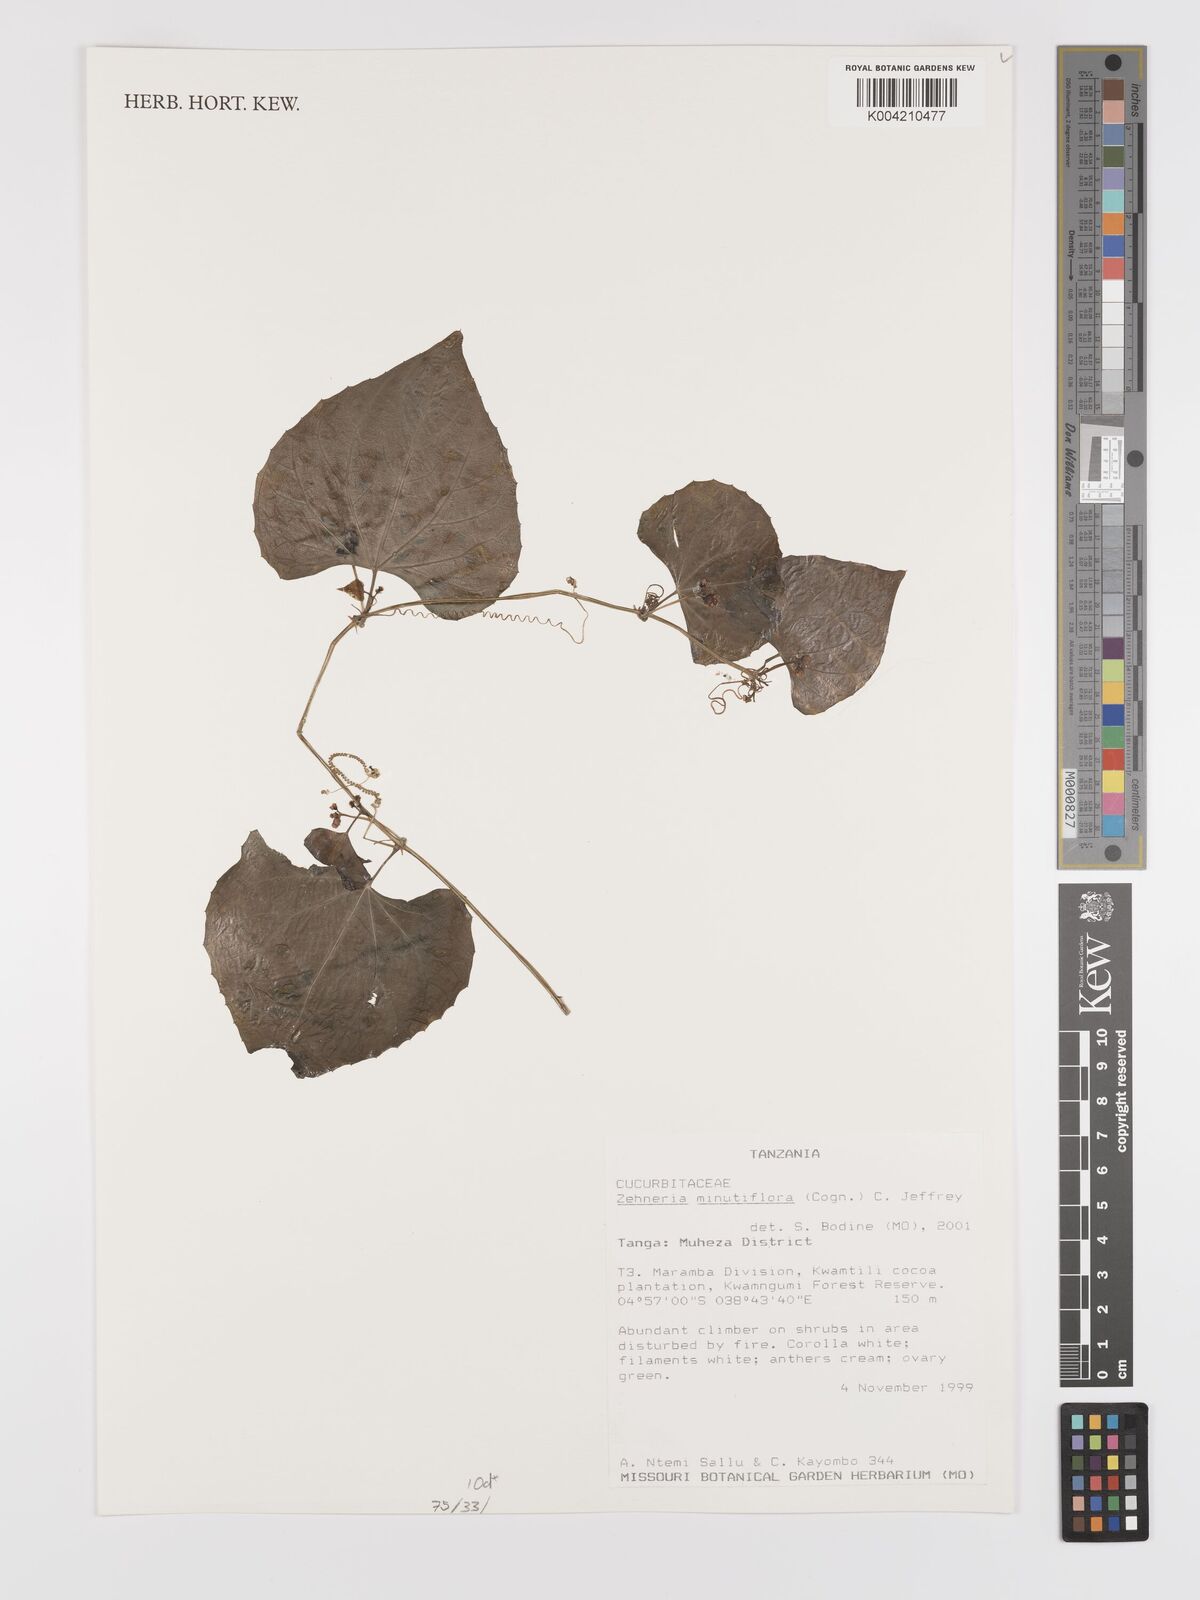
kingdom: Plantae
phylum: Tracheophyta
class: Magnoliopsida
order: Cucurbitales
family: Cucurbitaceae
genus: Zehneria
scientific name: Zehneria minutiflora
